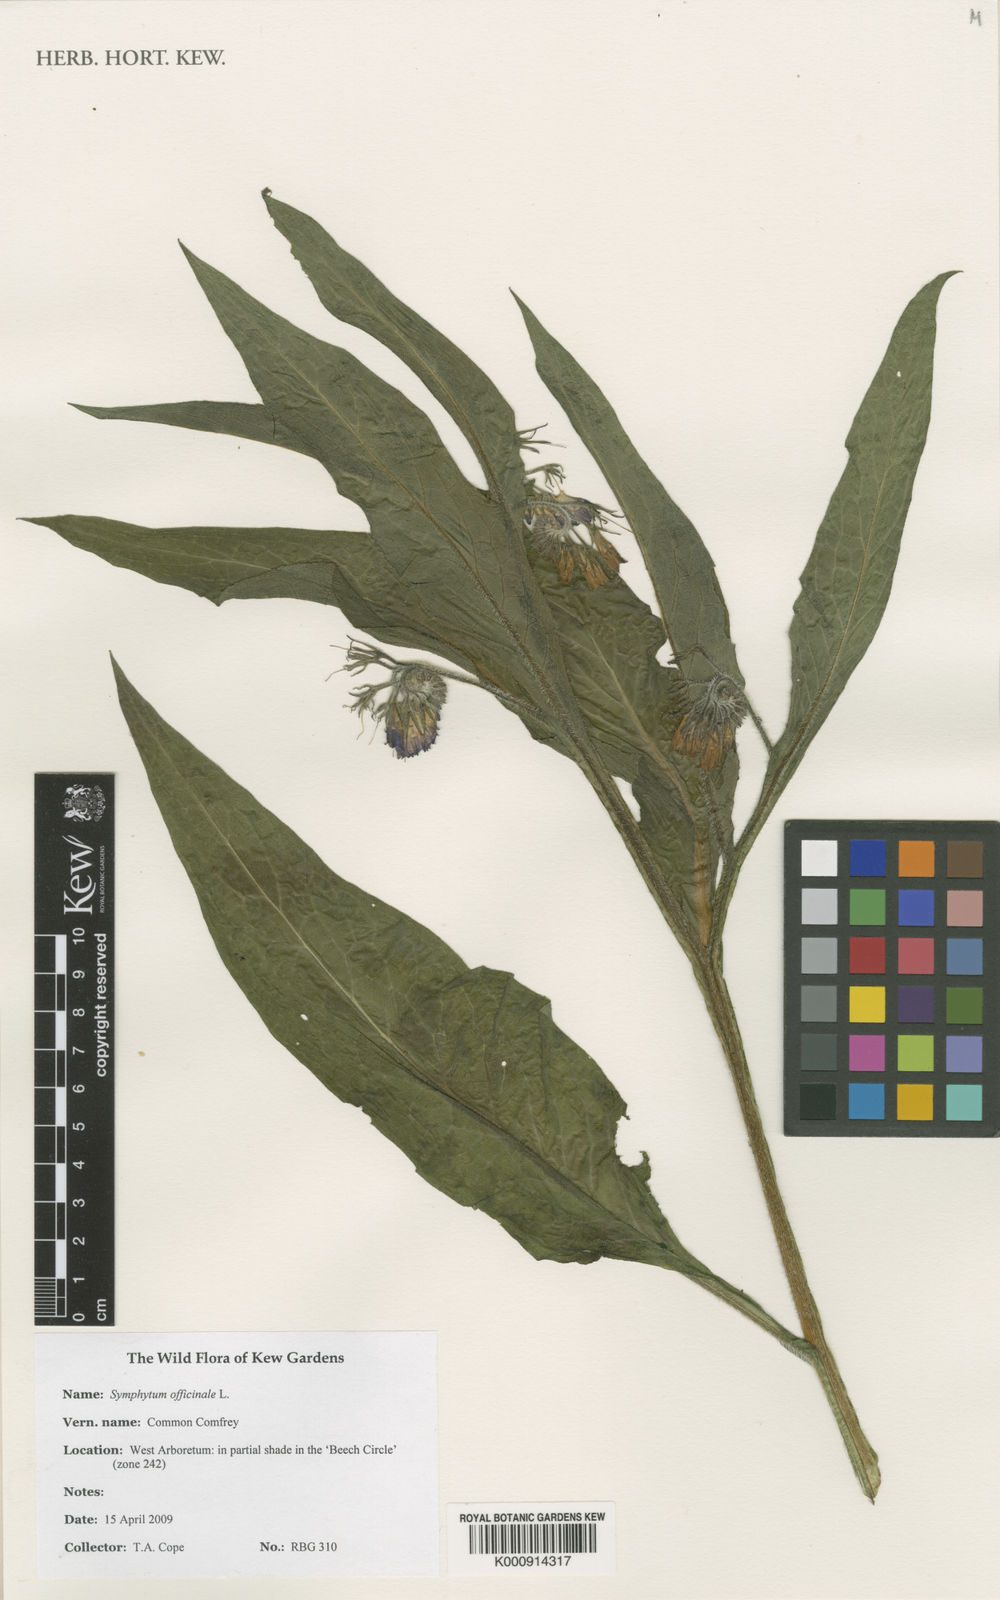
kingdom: Plantae
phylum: Tracheophyta
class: Magnoliopsida
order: Boraginales
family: Boraginaceae
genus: Symphytum
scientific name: Symphytum officinale
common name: Common comfrey
